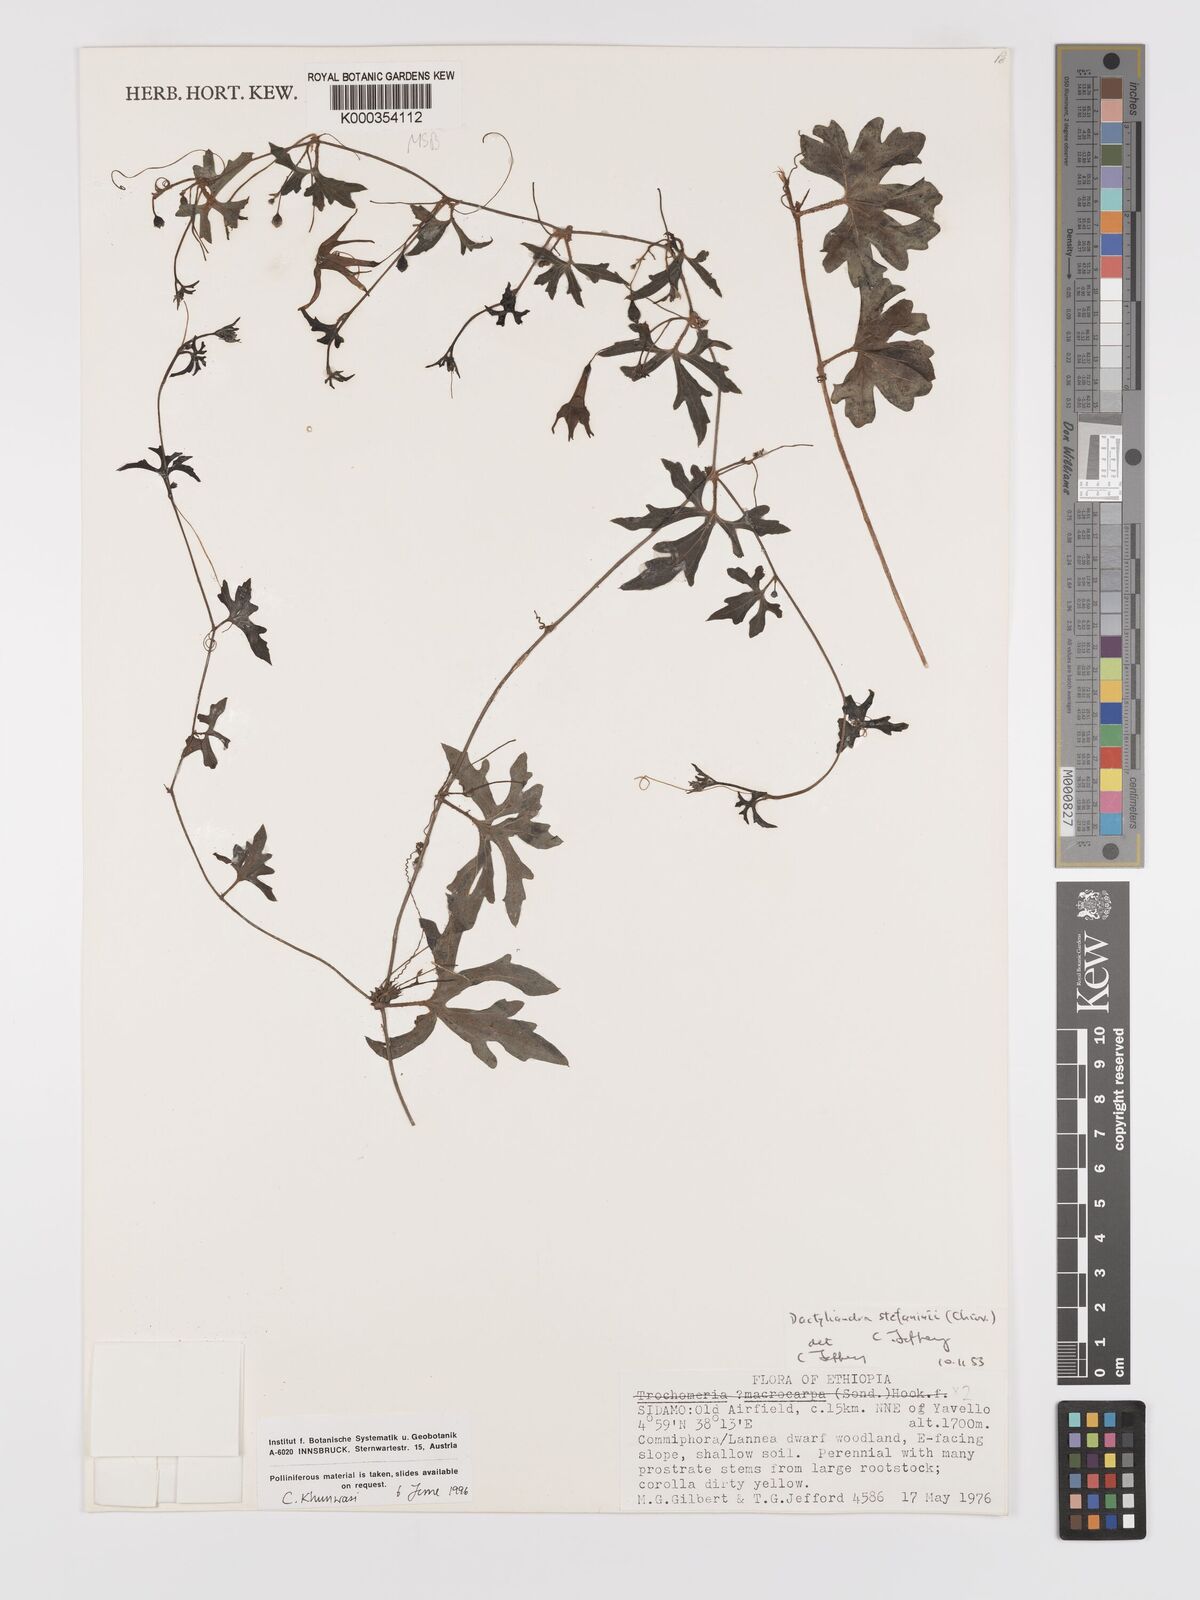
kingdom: Plantae
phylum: Tracheophyta
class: Magnoliopsida
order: Cucurbitales
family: Cucurbitaceae
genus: Dactyliandra
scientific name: Dactyliandra stefaninii
